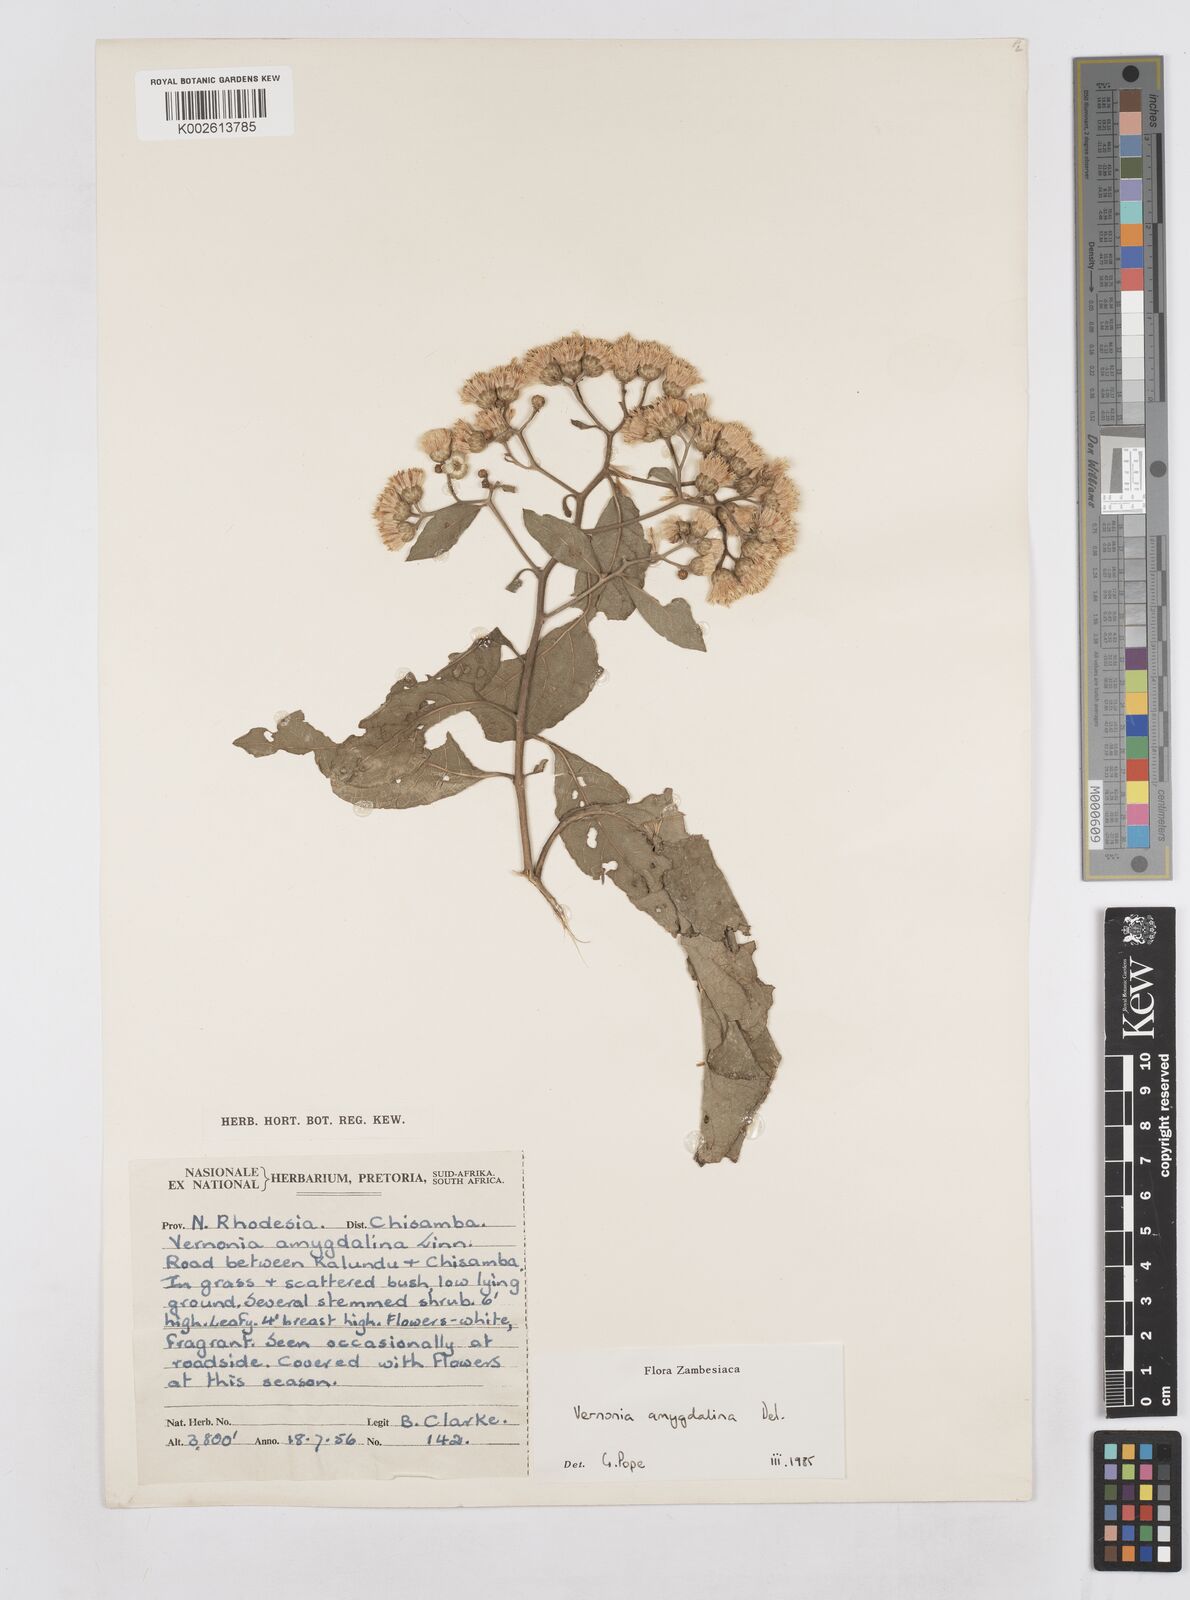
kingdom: Plantae
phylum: Tracheophyta
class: Magnoliopsida
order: Asterales
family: Asteraceae
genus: Gymnanthemum
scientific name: Gymnanthemum amygdalinum
